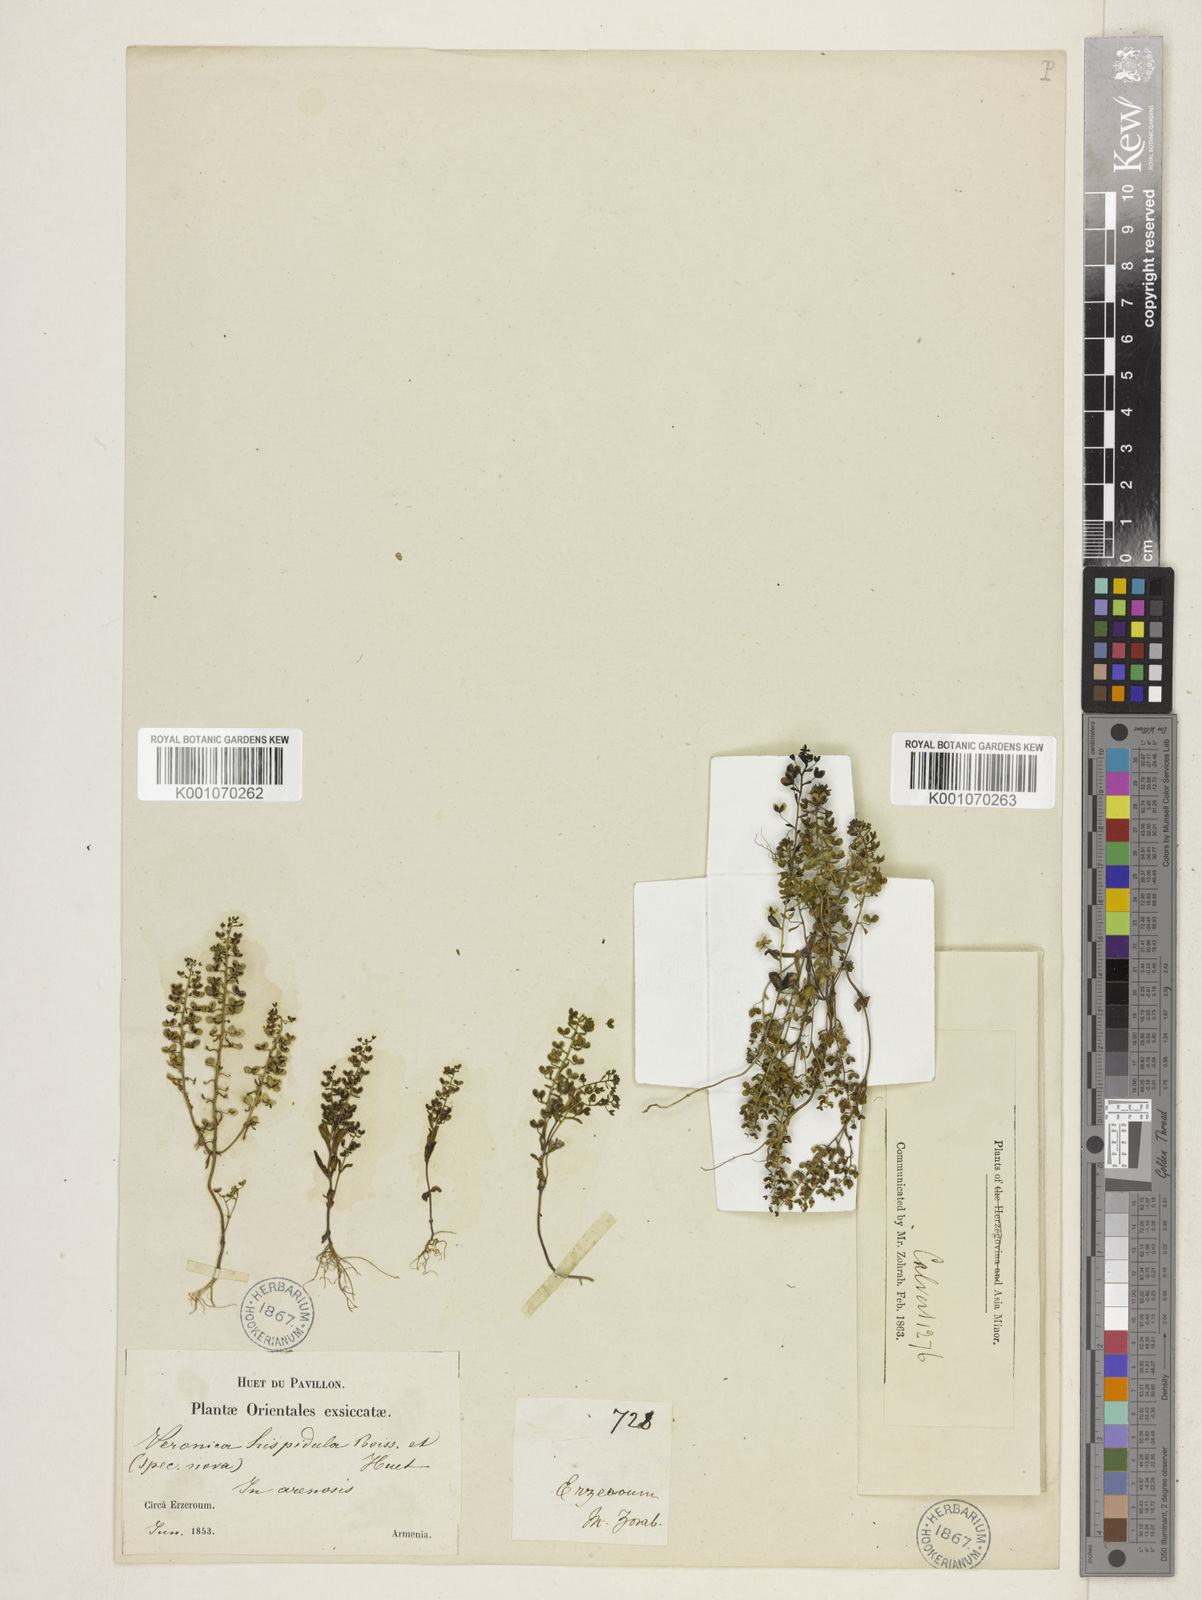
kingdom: Plantae
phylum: Tracheophyta
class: Magnoliopsida
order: Lamiales
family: Plantaginaceae
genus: Veronica
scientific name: Veronica hispidula
